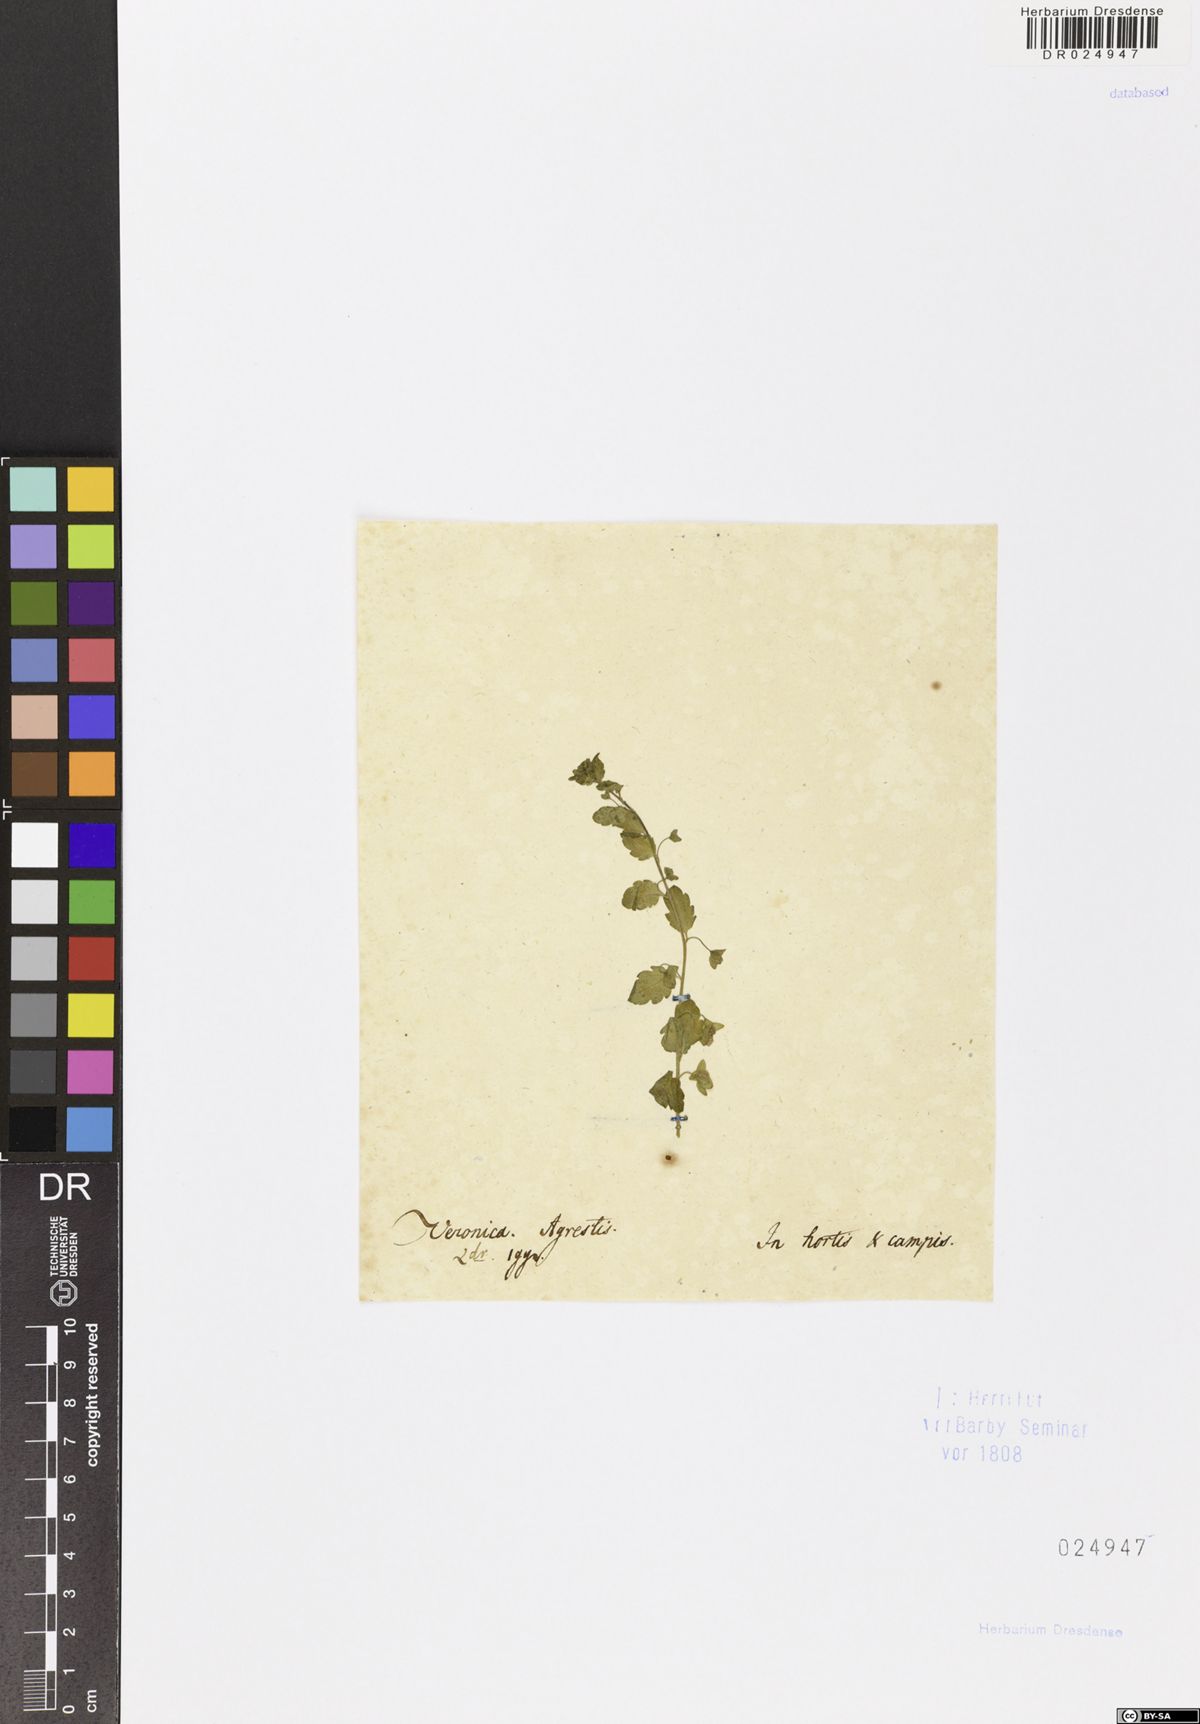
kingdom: Plantae
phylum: Tracheophyta
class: Magnoliopsida
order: Lamiales
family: Plantaginaceae
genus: Veronica
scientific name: Veronica agrestis
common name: Green field-speedwell
